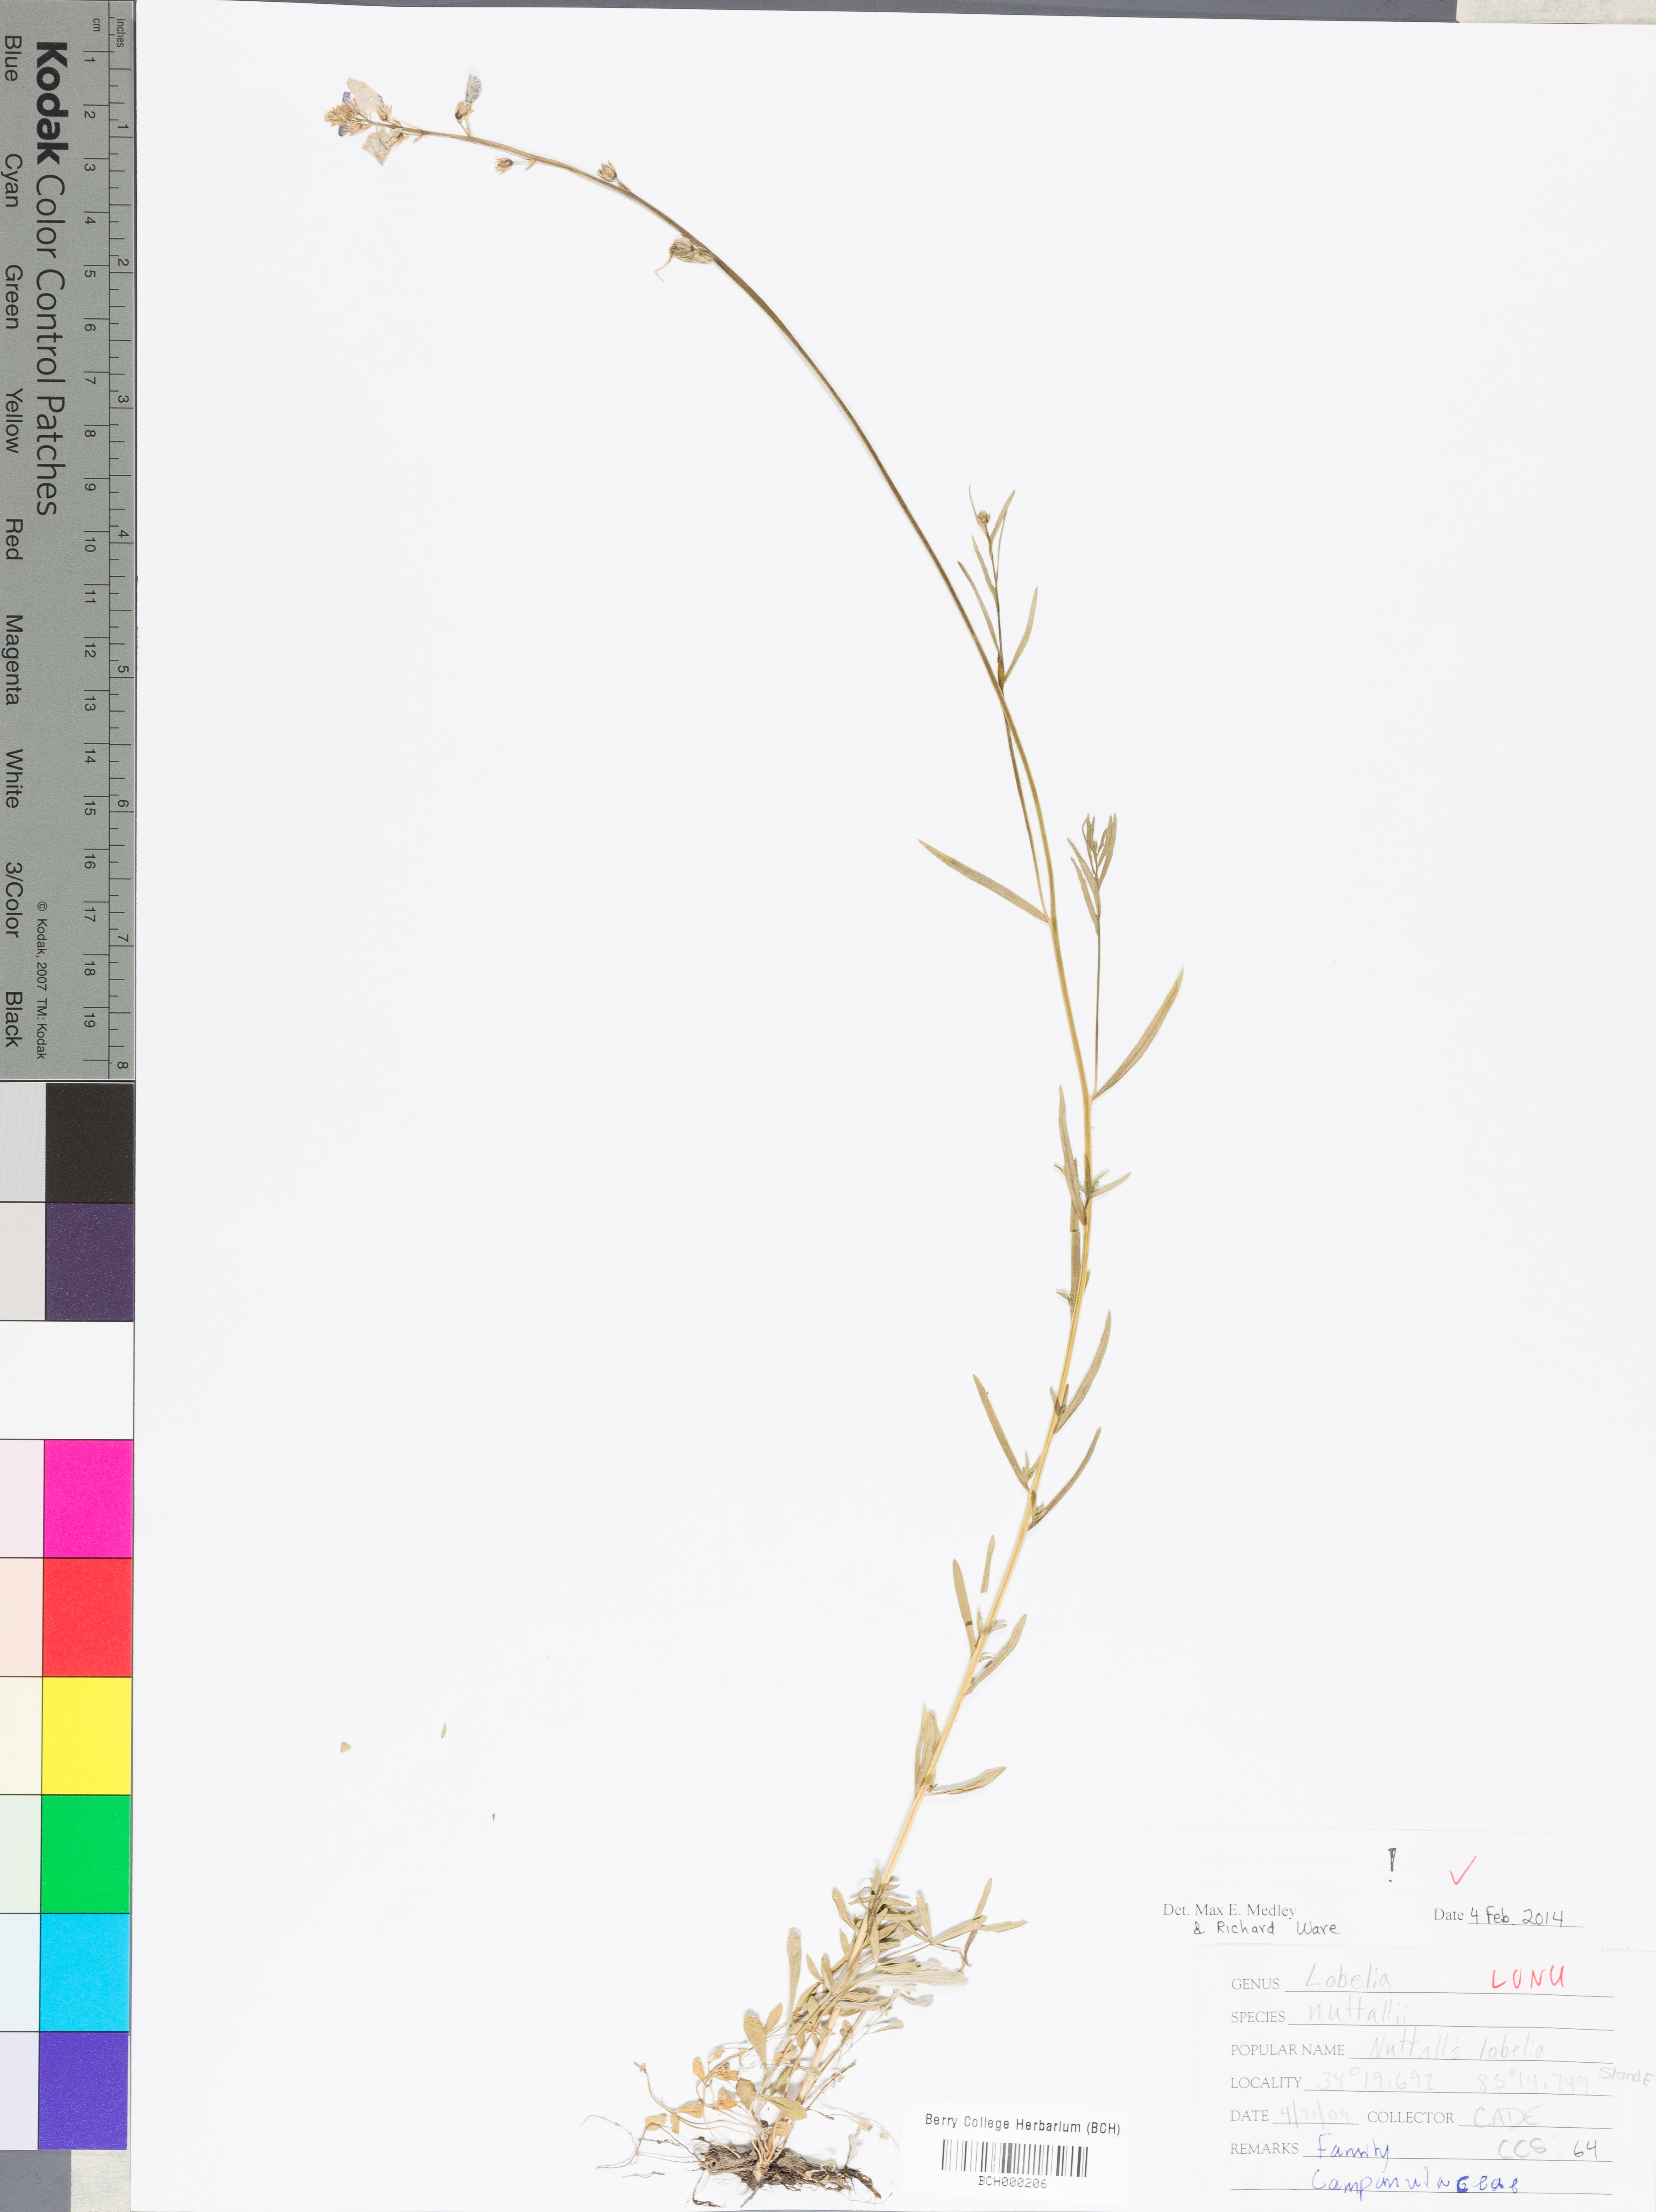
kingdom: Plantae
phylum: Tracheophyta
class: Magnoliopsida
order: Asterales
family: Campanulaceae
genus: Lobelia
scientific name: Lobelia nuttallii
